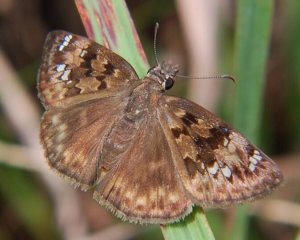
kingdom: Animalia
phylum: Arthropoda
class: Insecta
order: Lepidoptera
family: Hesperiidae
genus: Gesta
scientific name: Gesta
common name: Horace's Duskywing
